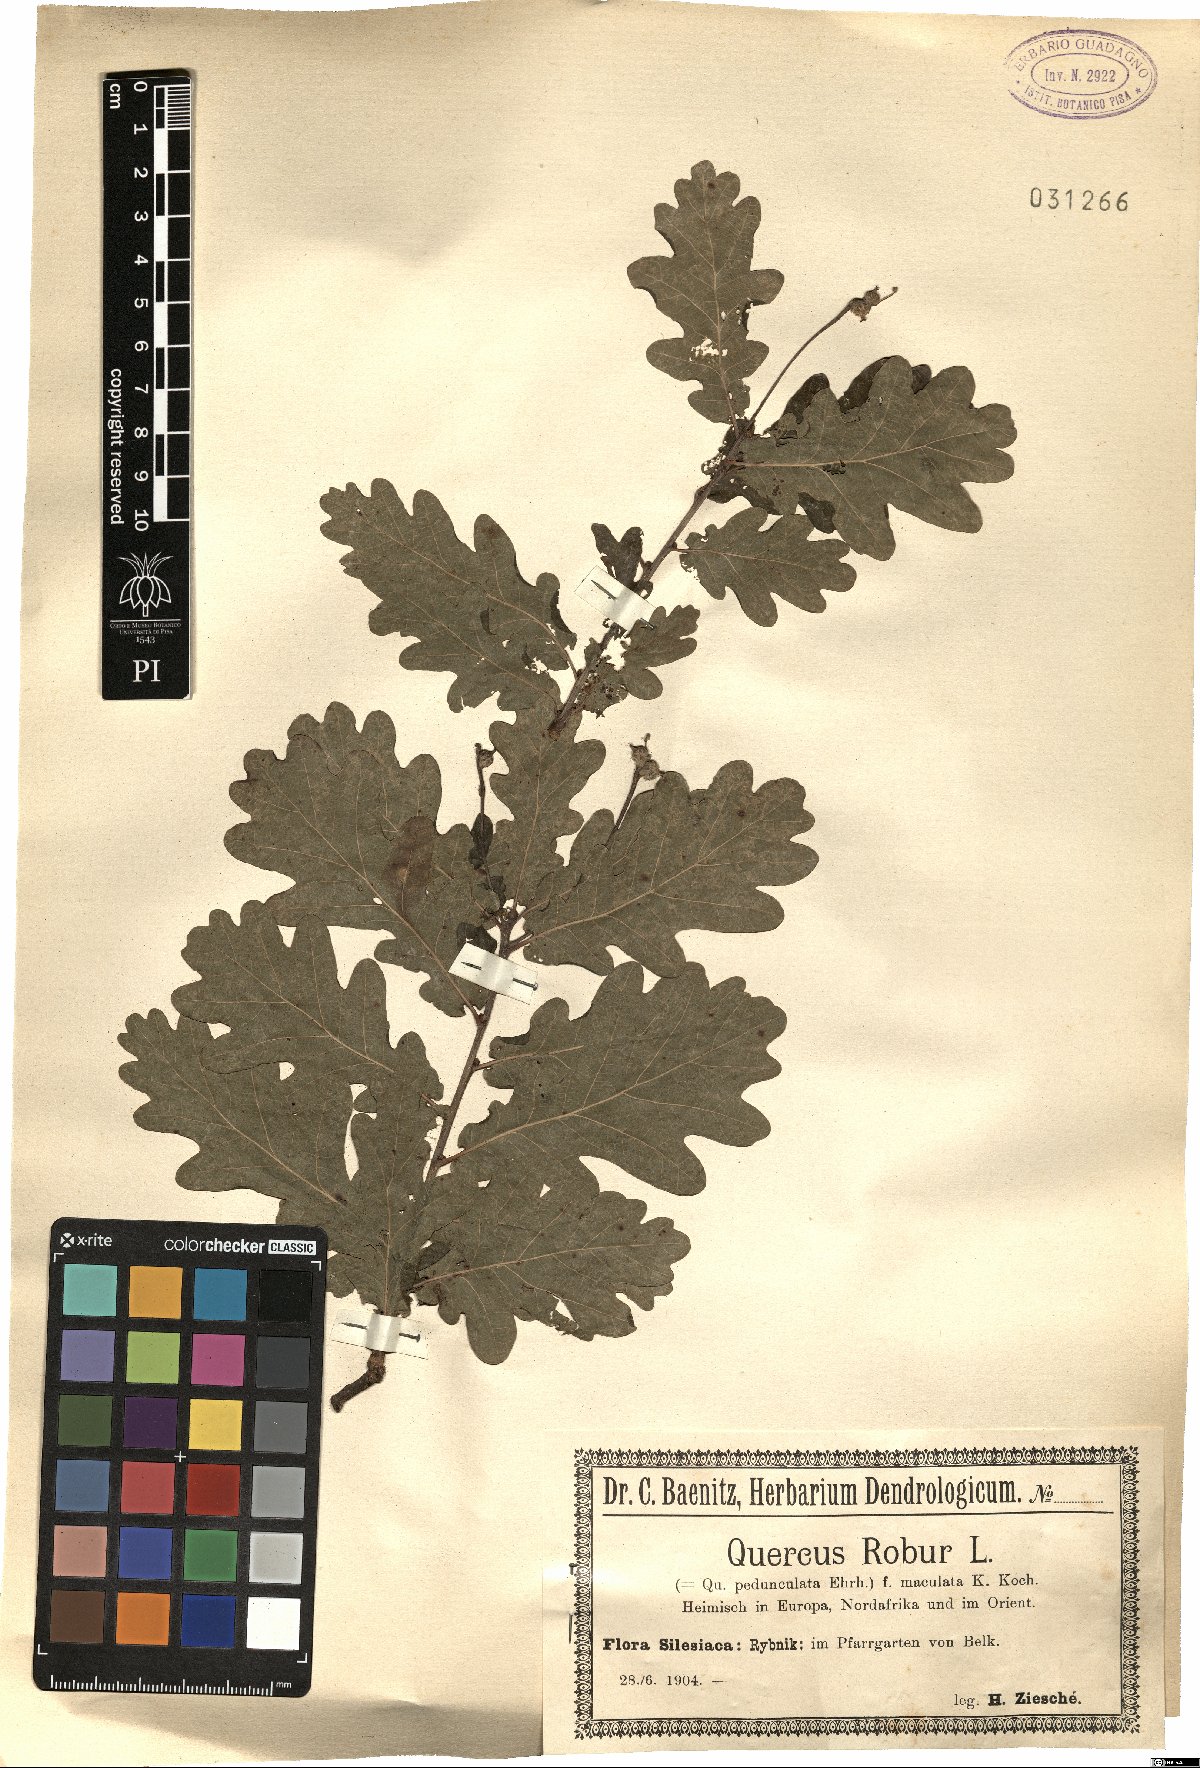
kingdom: Plantae
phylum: Tracheophyta
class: Magnoliopsida
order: Fagales
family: Fagaceae
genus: Quercus
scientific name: Quercus robur
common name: Pedunculate oak
